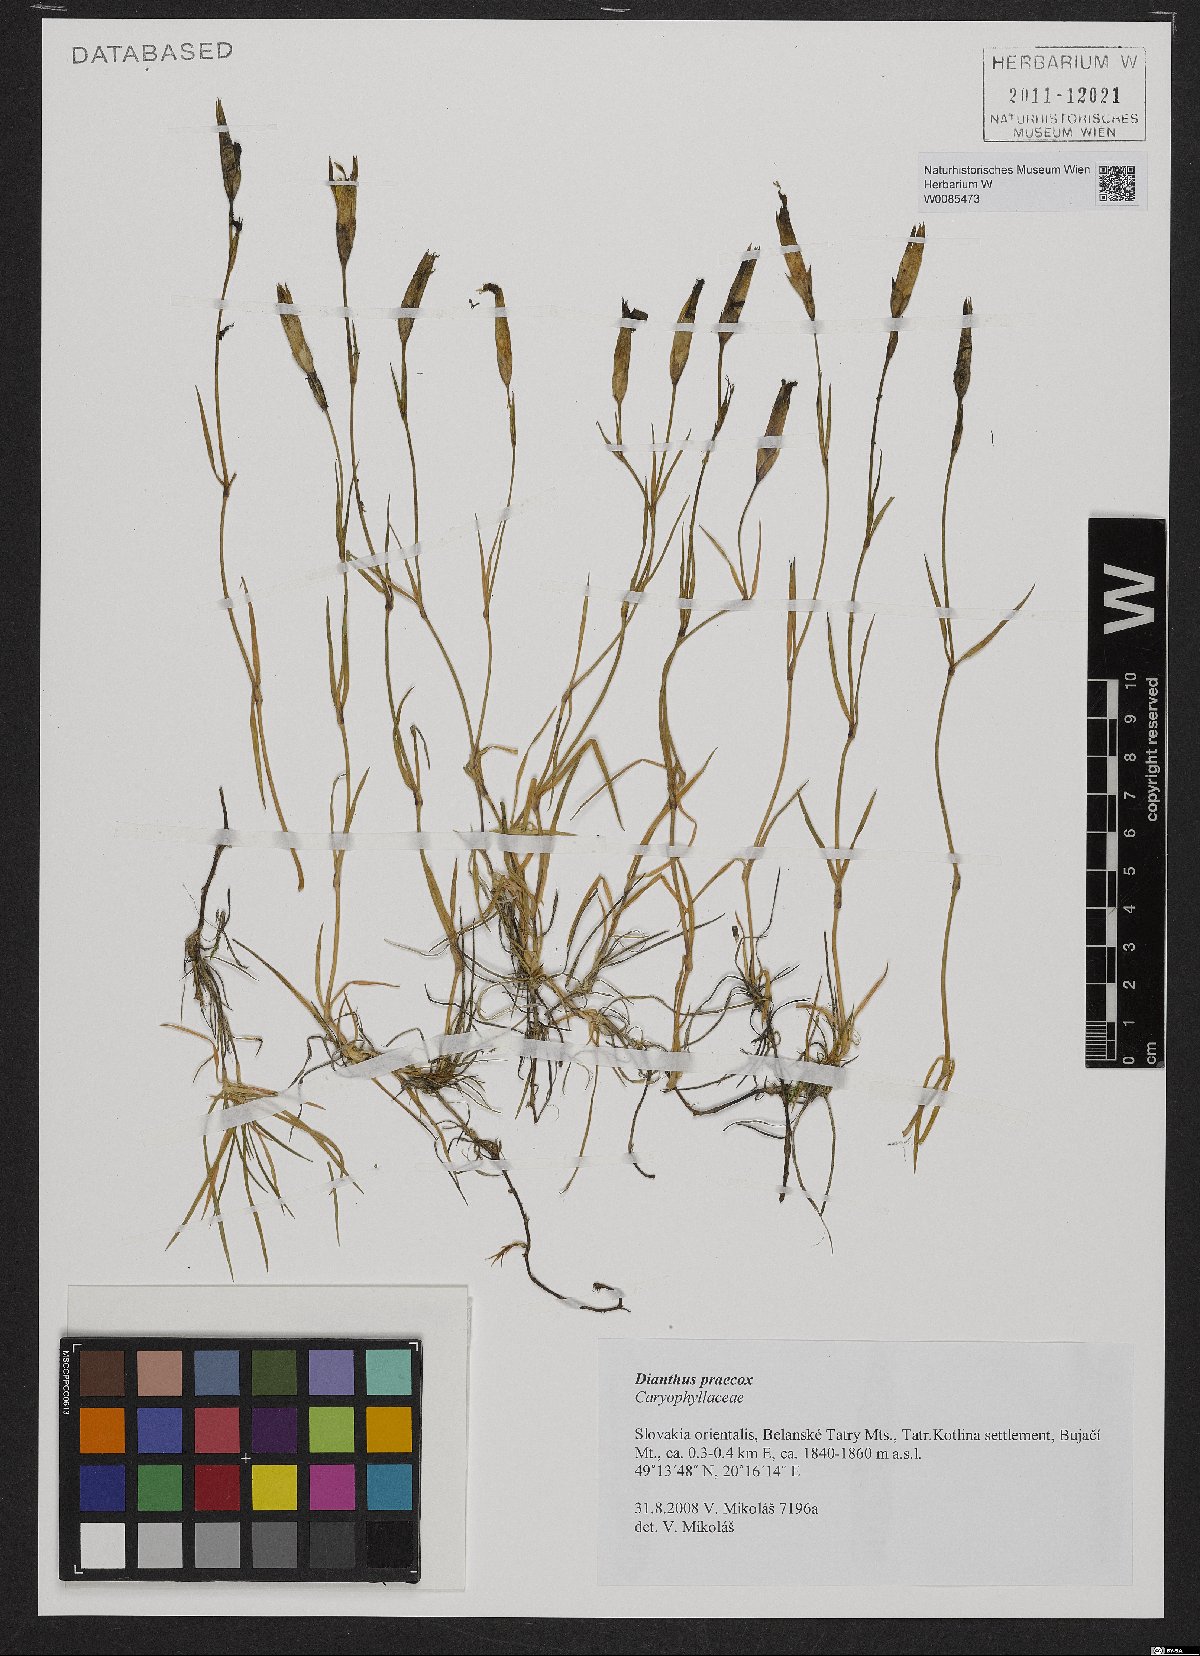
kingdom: Plantae
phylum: Tracheophyta
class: Magnoliopsida
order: Caryophyllales
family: Caryophyllaceae
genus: Dianthus
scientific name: Dianthus praecox
